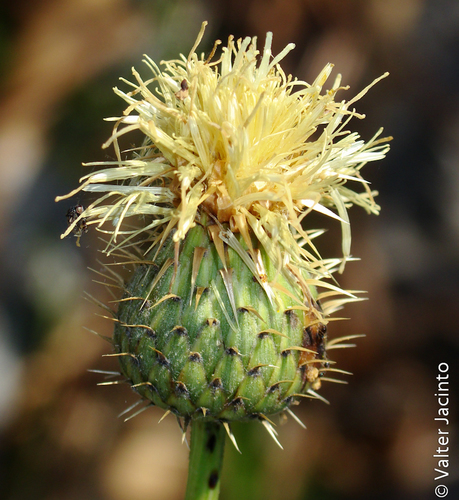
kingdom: Plantae
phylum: Tracheophyta
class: Magnoliopsida
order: Asterales
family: Asteraceae
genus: Klasea
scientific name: Klasea flavescens
